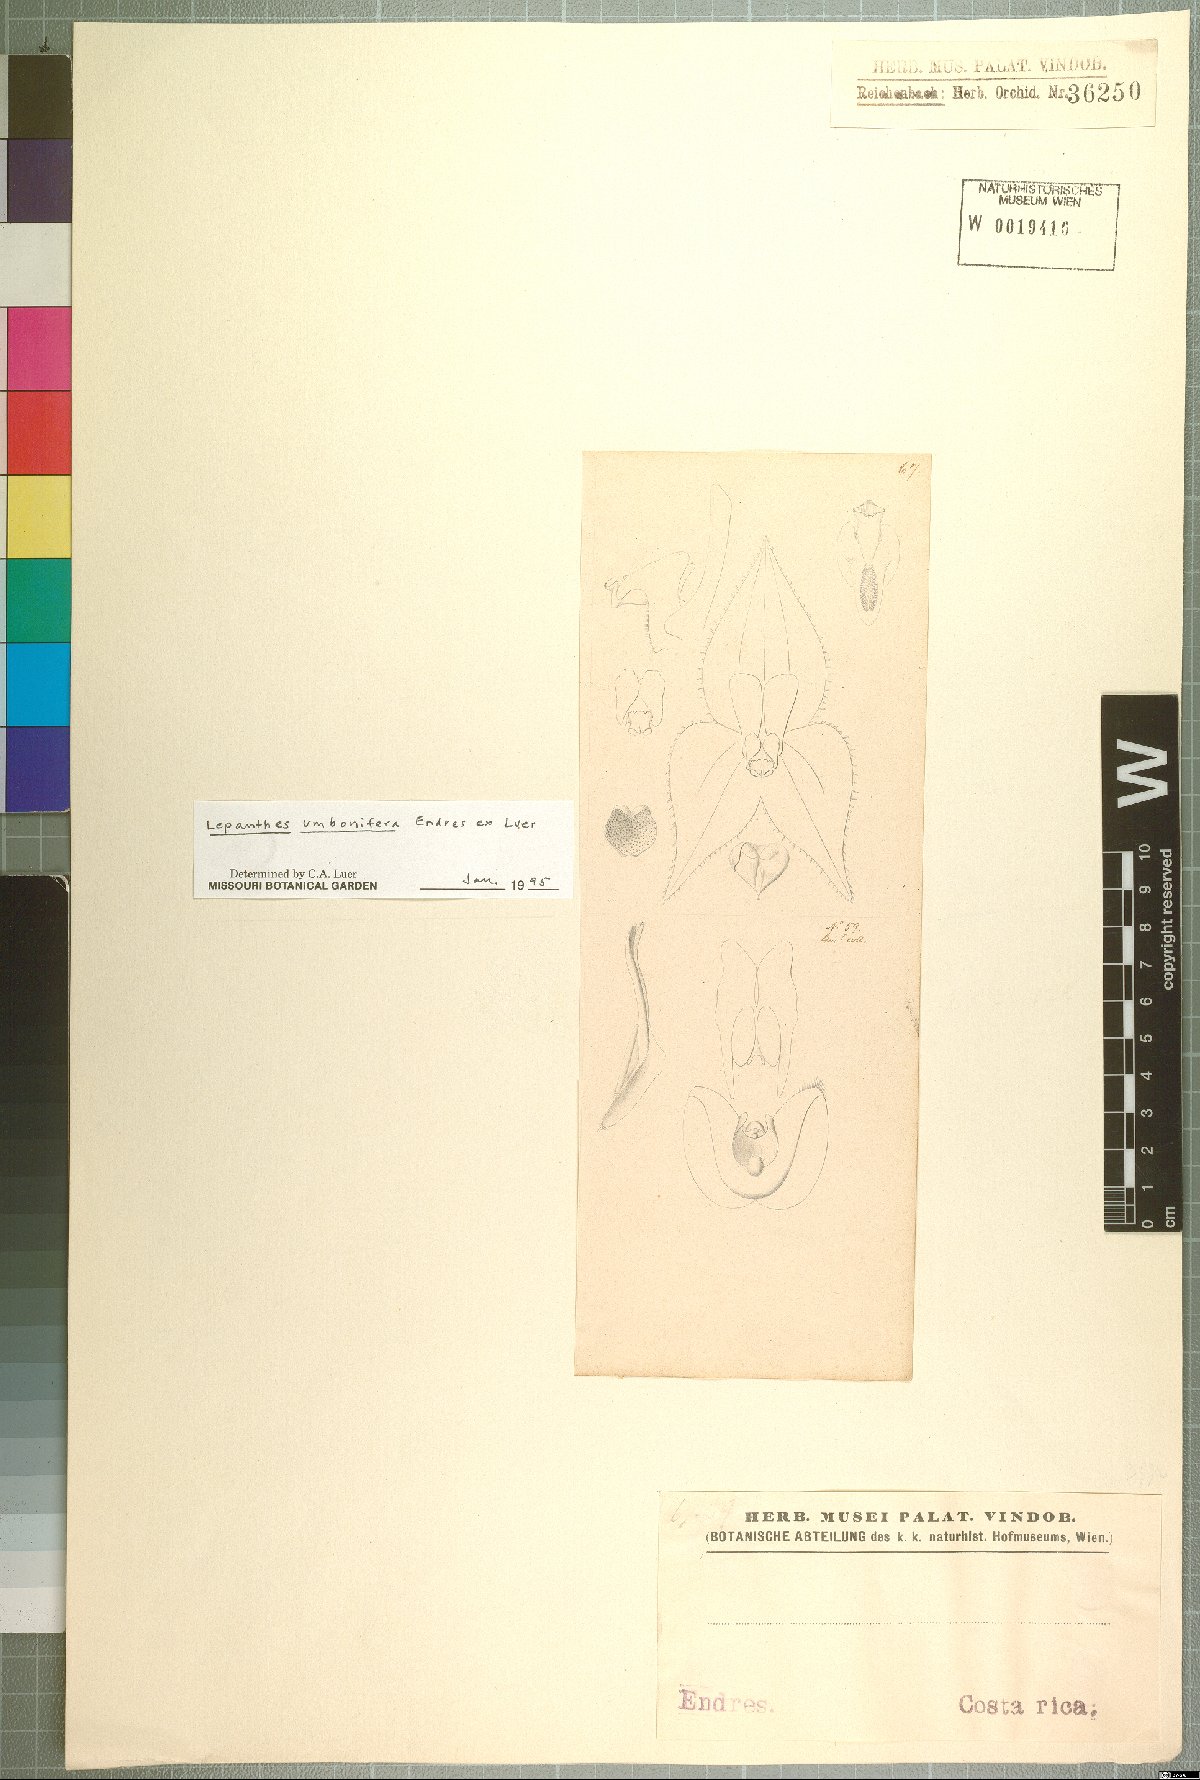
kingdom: Plantae
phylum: Tracheophyta
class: Liliopsida
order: Asparagales
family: Orchidaceae
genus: Lepanthes
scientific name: Lepanthes umbonifera
